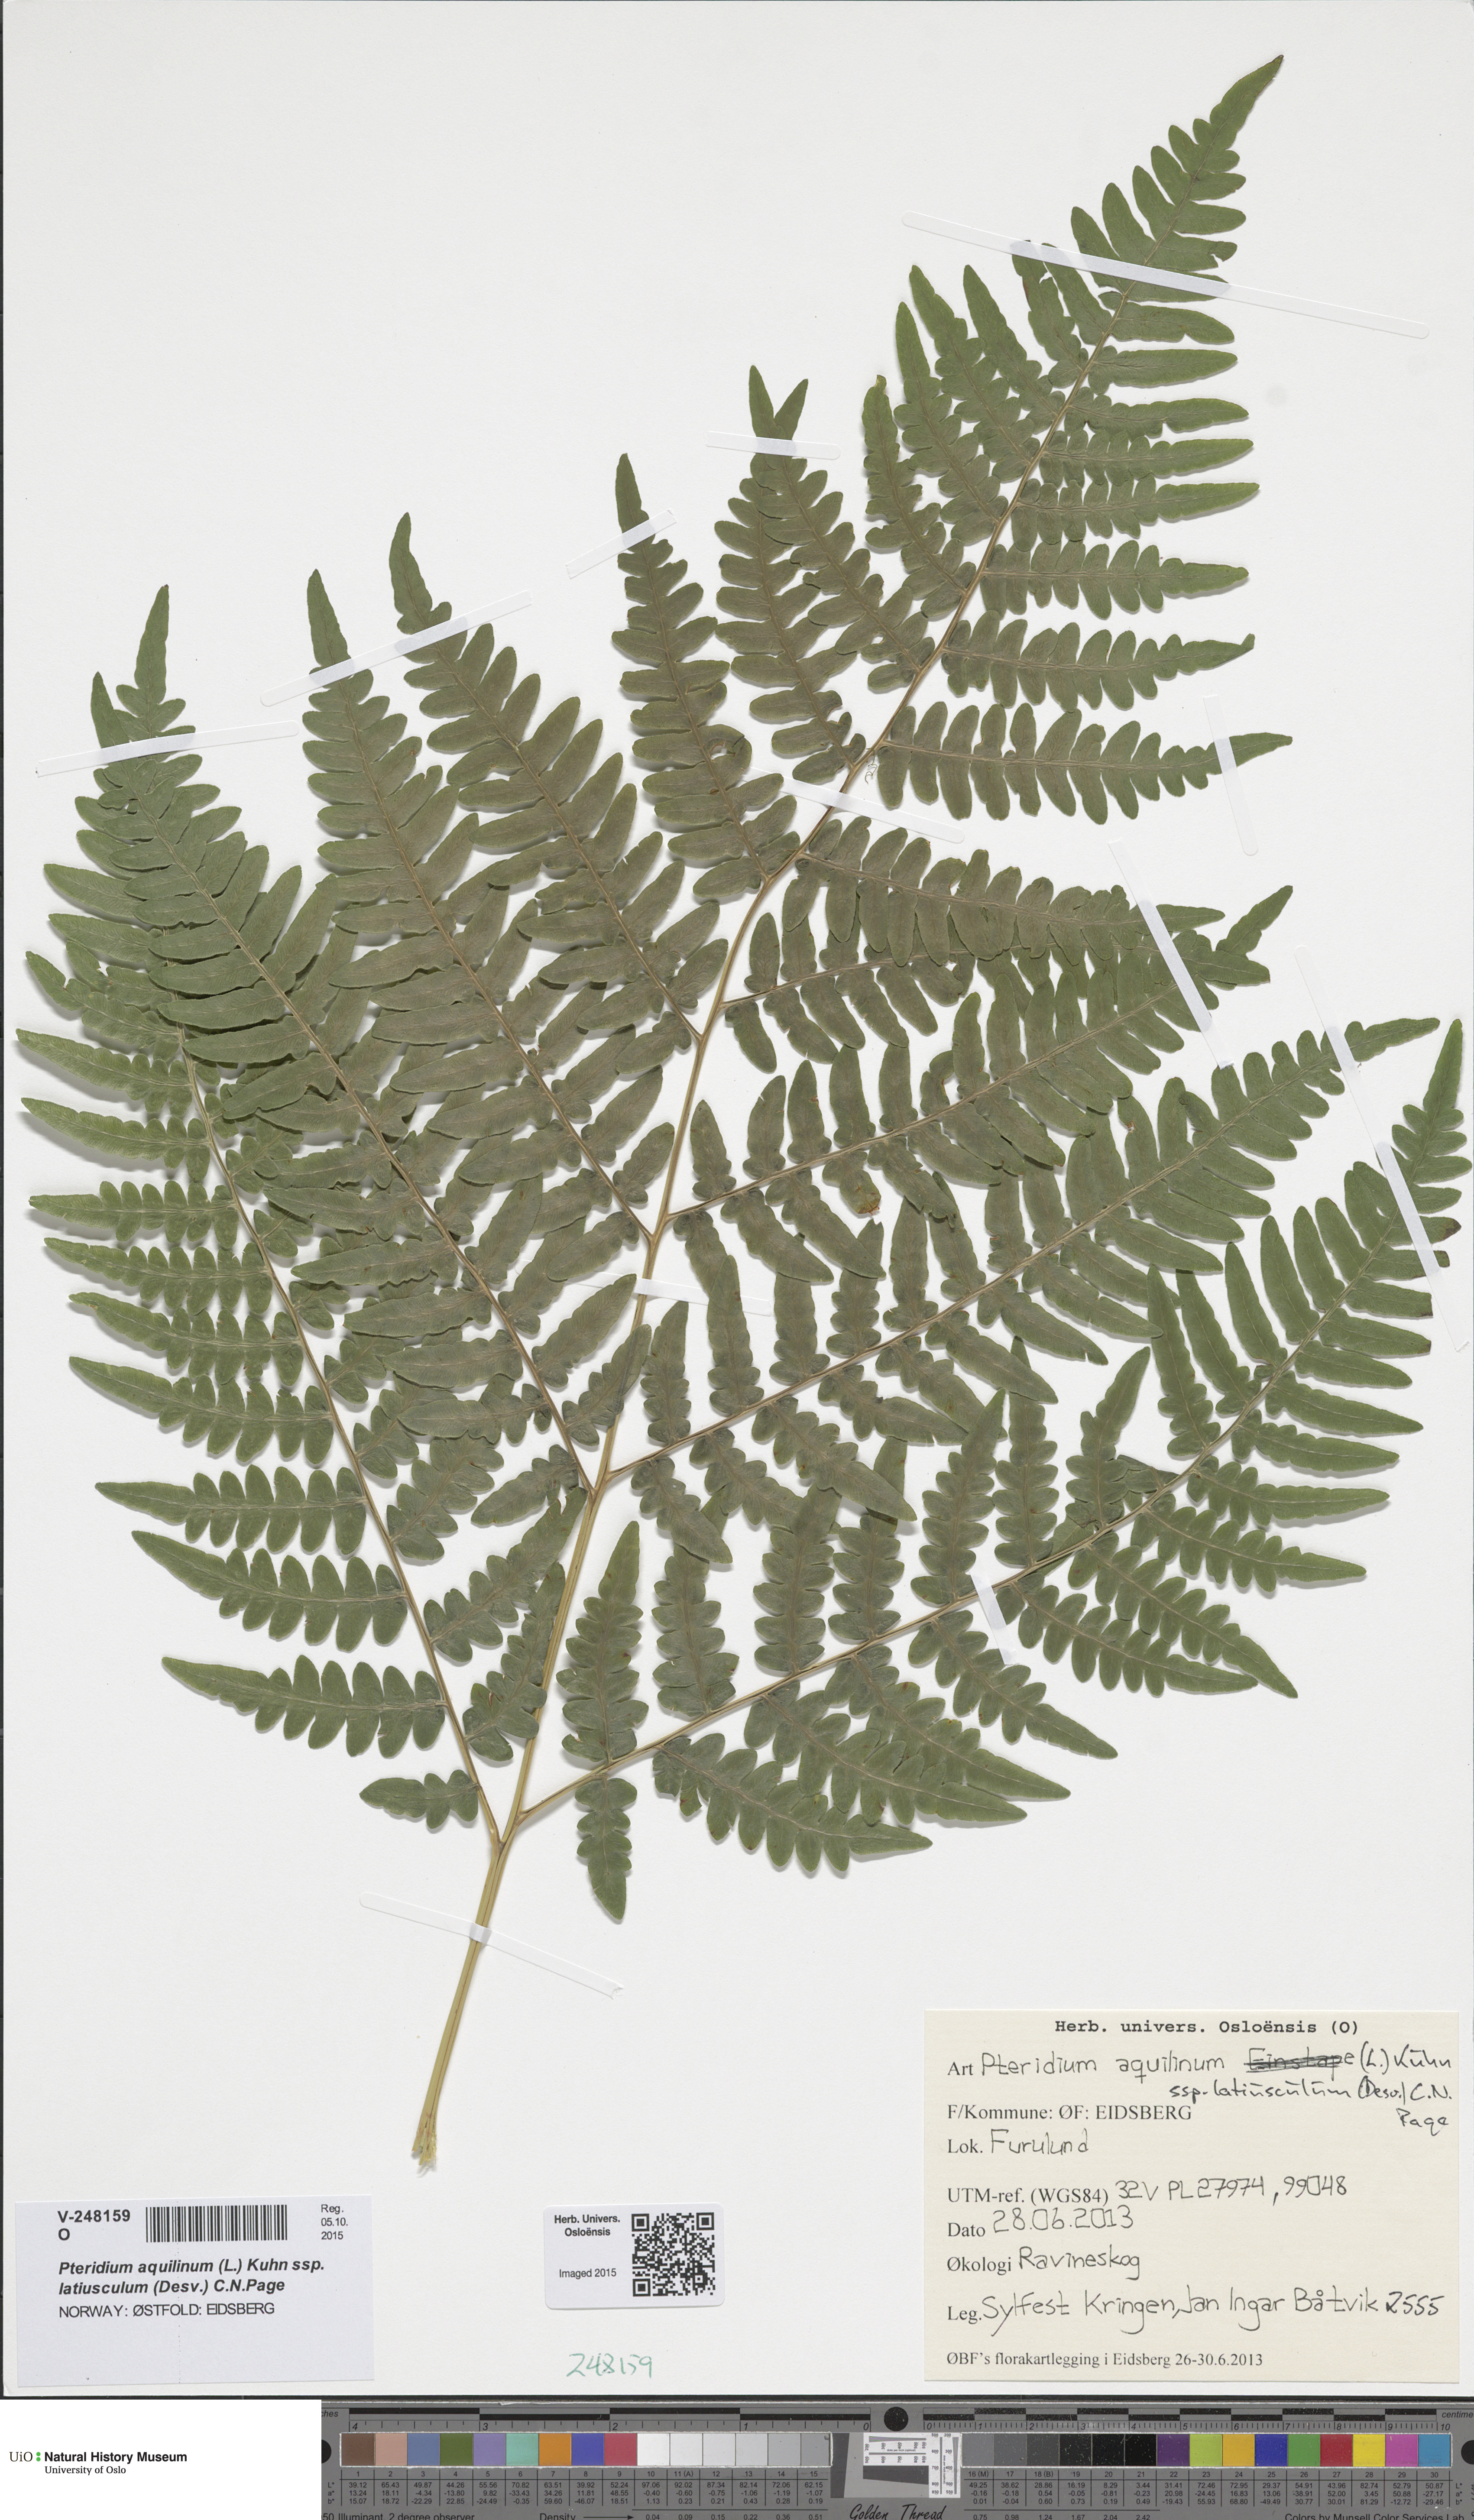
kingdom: Plantae
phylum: Tracheophyta
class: Polypodiopsida
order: Polypodiales
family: Dennstaedtiaceae
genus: Pteridium
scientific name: Pteridium aquilinum
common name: Bracken
